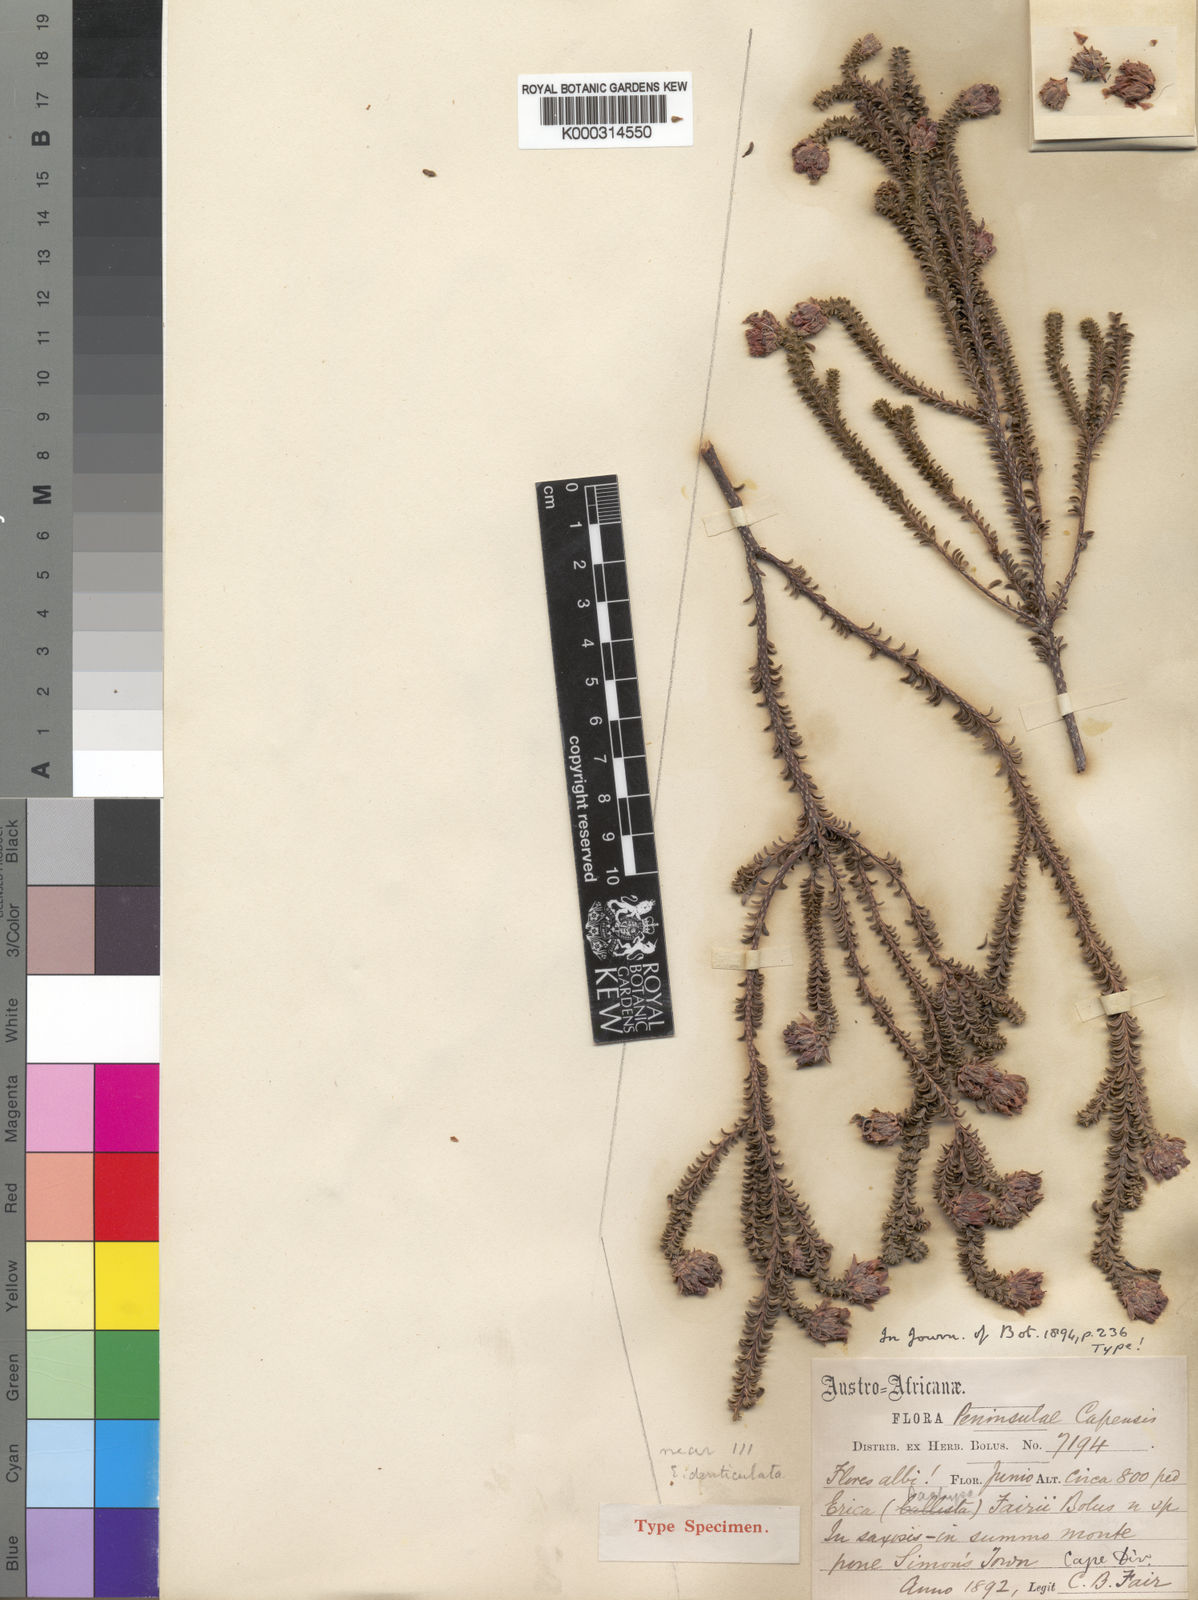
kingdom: Plantae
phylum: Tracheophyta
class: Magnoliopsida
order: Ericales
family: Ericaceae
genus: Erica
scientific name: Erica fairii
